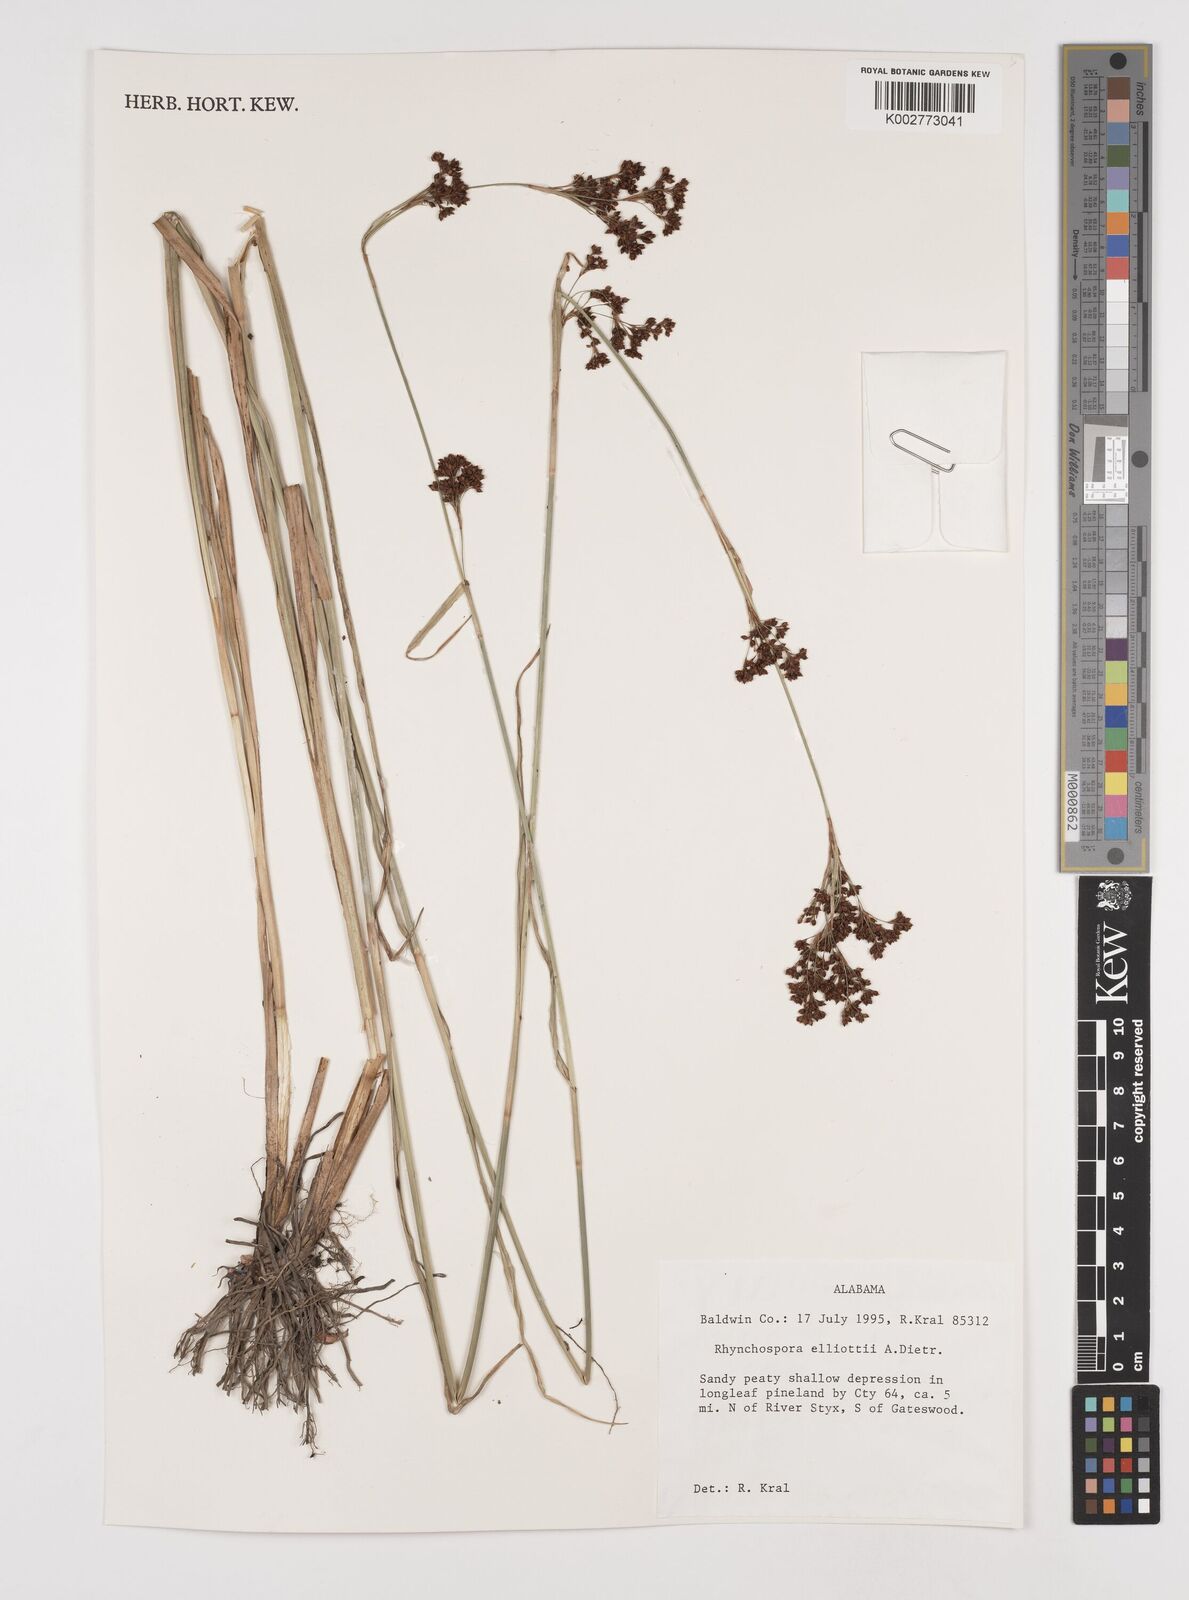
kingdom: Plantae
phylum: Tracheophyta
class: Liliopsida
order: Poales
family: Cyperaceae
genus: Rhynchospora
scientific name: Rhynchospora elliottii
